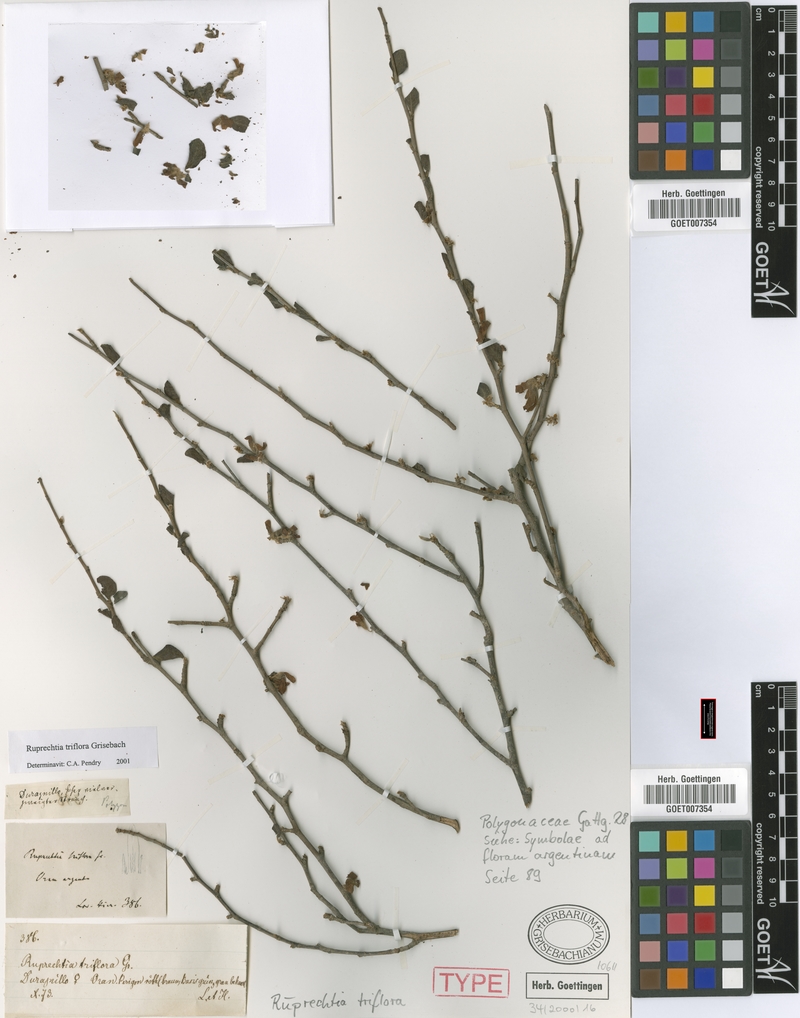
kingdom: Plantae
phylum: Tracheophyta
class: Magnoliopsida
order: Caryophyllales
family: Polygonaceae
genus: Salta
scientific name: Salta triflora
